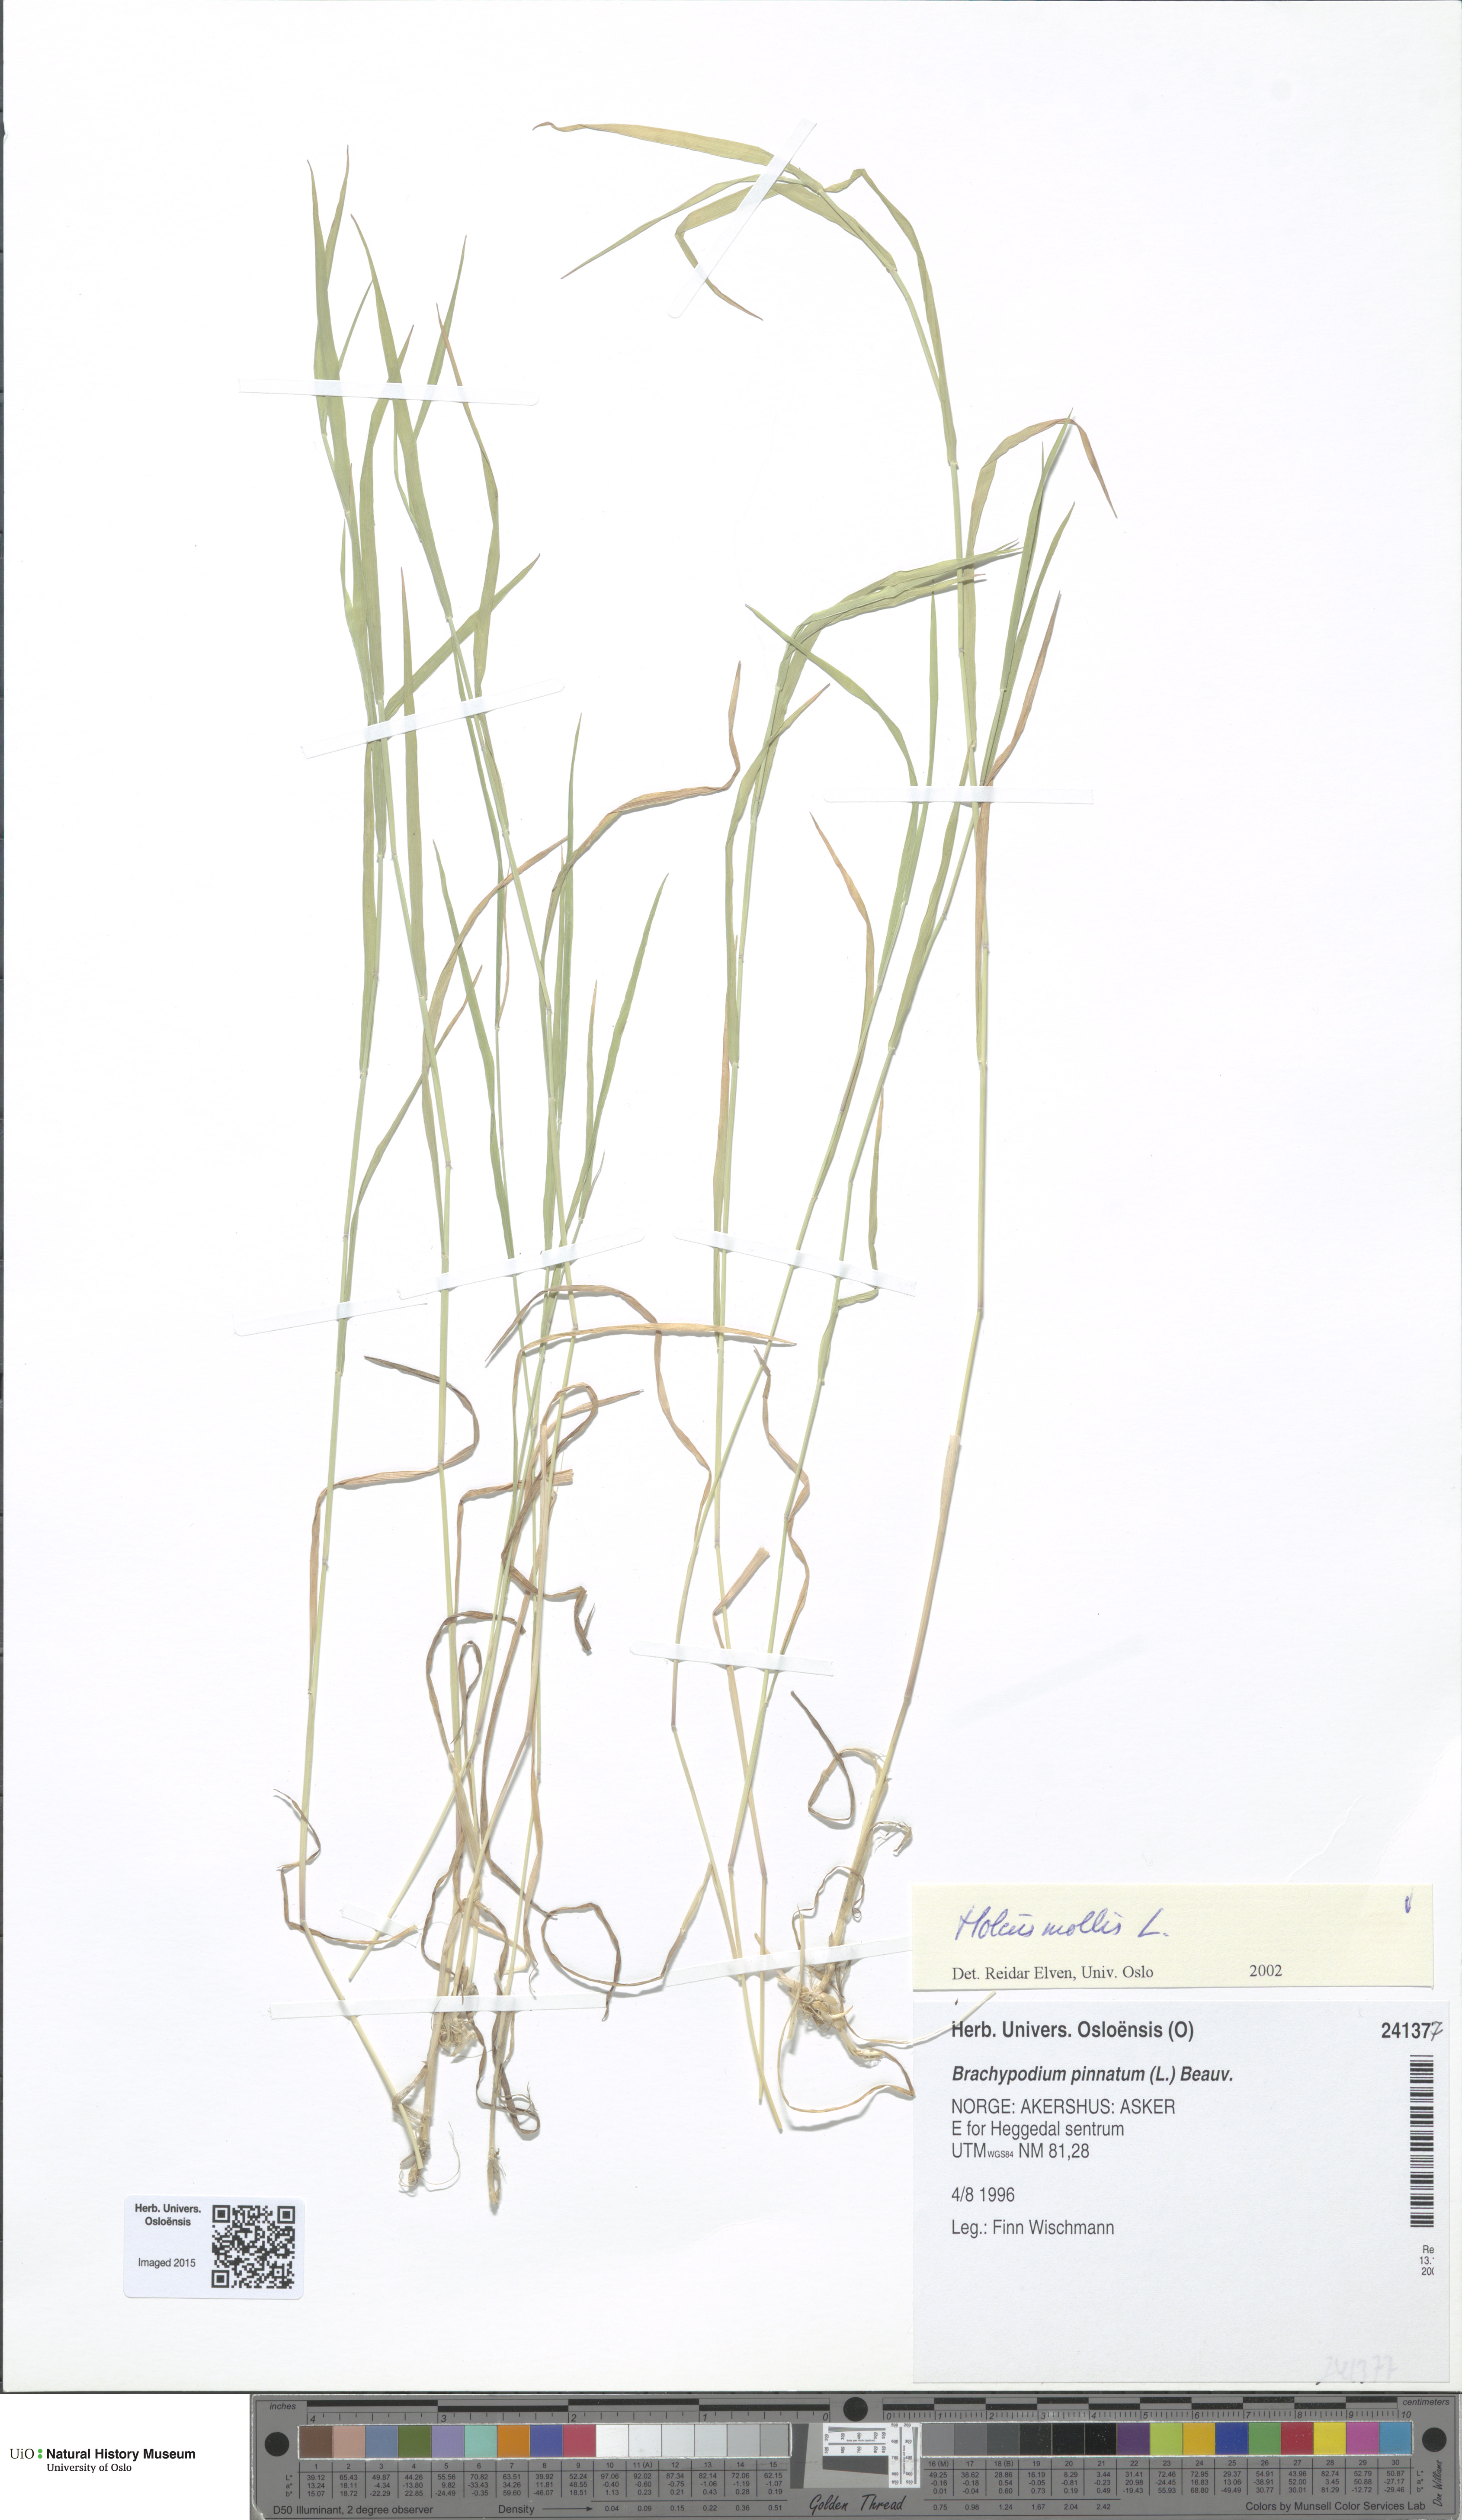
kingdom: Plantae
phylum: Tracheophyta
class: Liliopsida
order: Poales
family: Poaceae
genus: Holcus
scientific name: Holcus mollis
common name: Creeping velvetgrass
